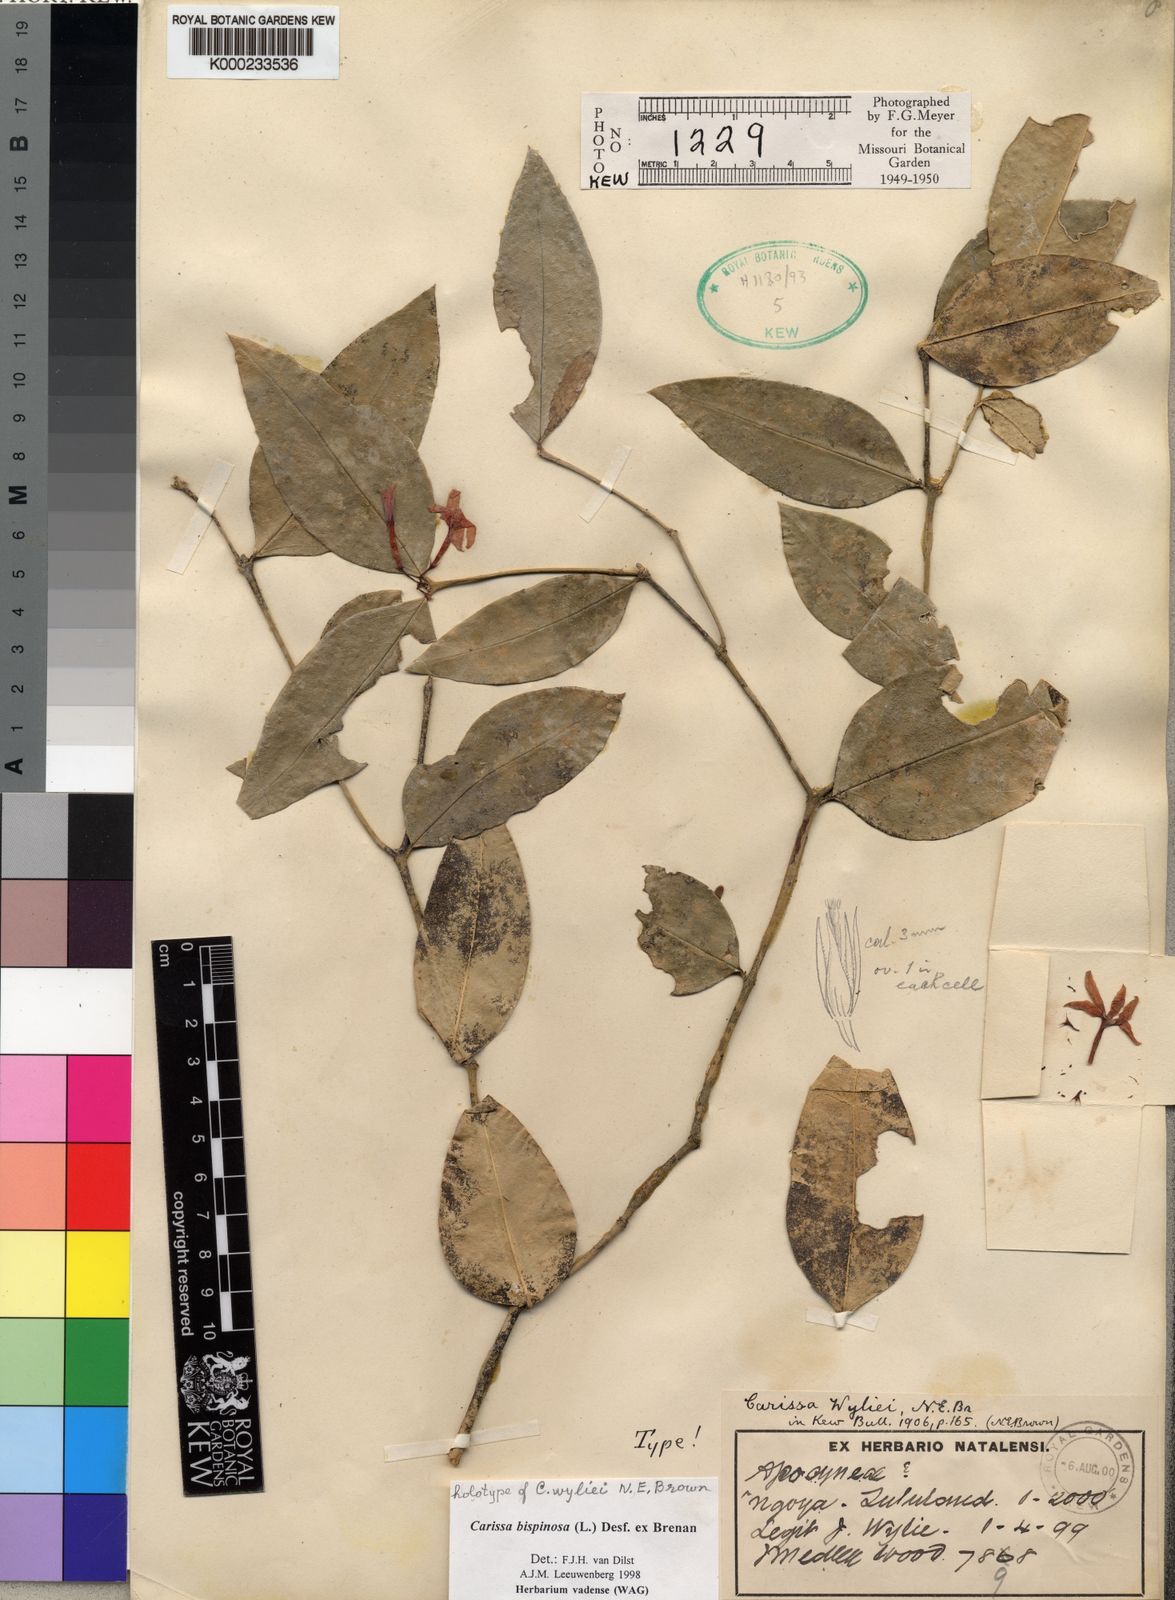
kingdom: Plantae
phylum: Tracheophyta
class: Magnoliopsida
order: Gentianales
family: Apocynaceae
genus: Carissa
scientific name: Carissa bispinosa
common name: Forest num-num
